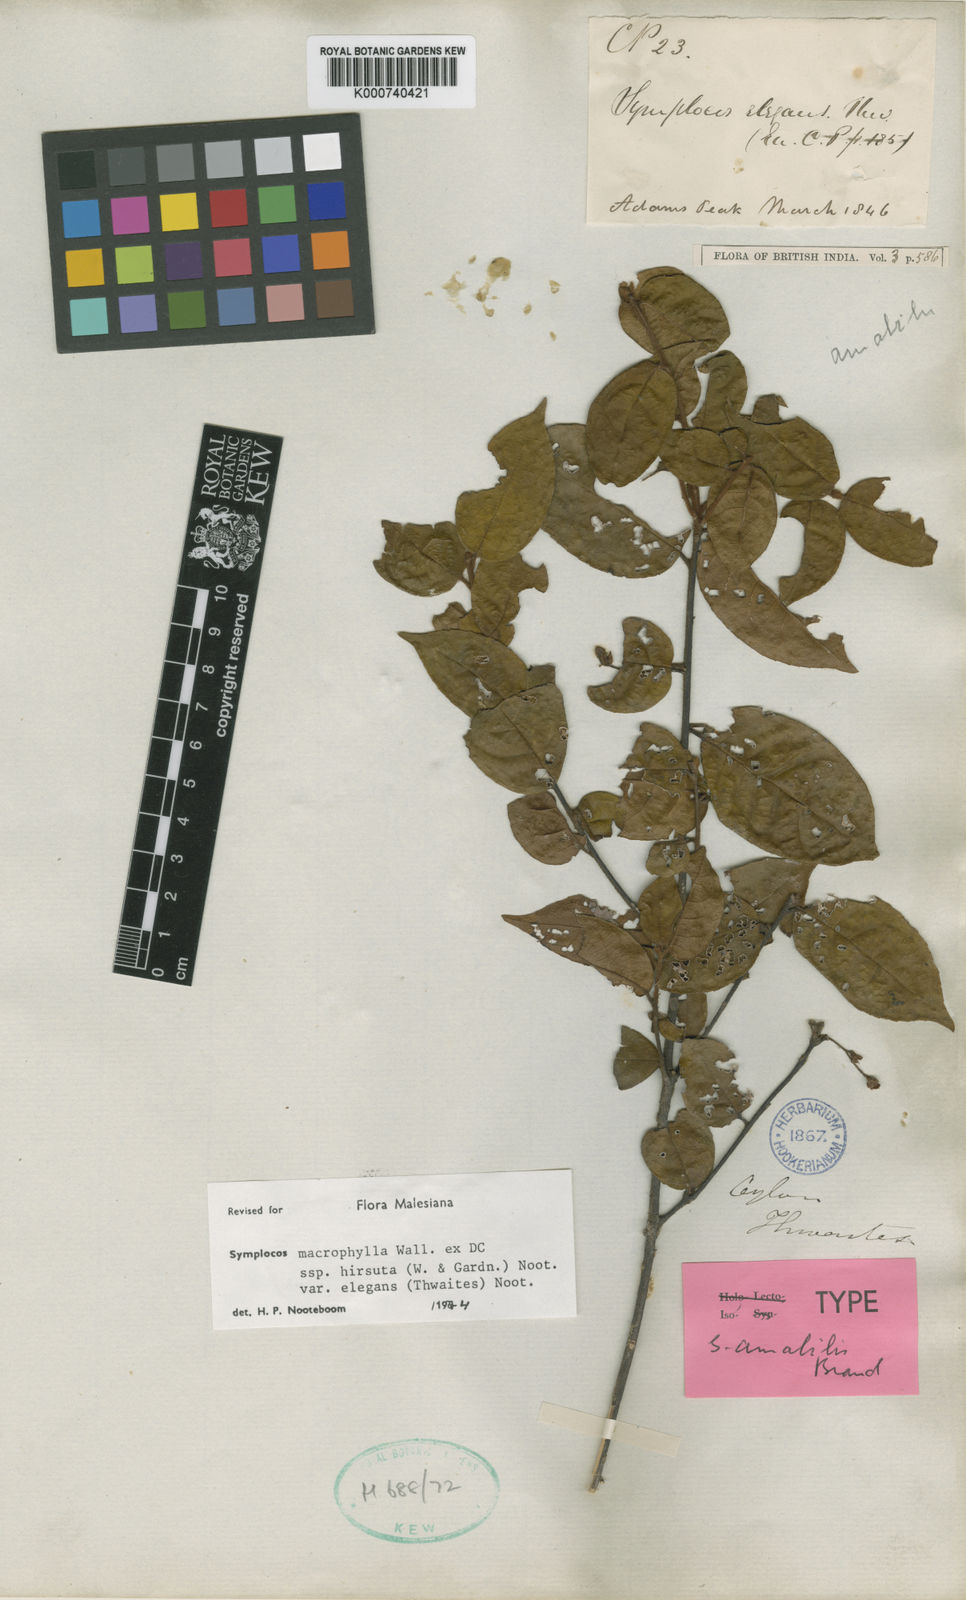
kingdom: Plantae
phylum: Tracheophyta
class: Magnoliopsida
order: Ericales
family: Symplocaceae
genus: Symplocos
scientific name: Symplocos macrophylla
